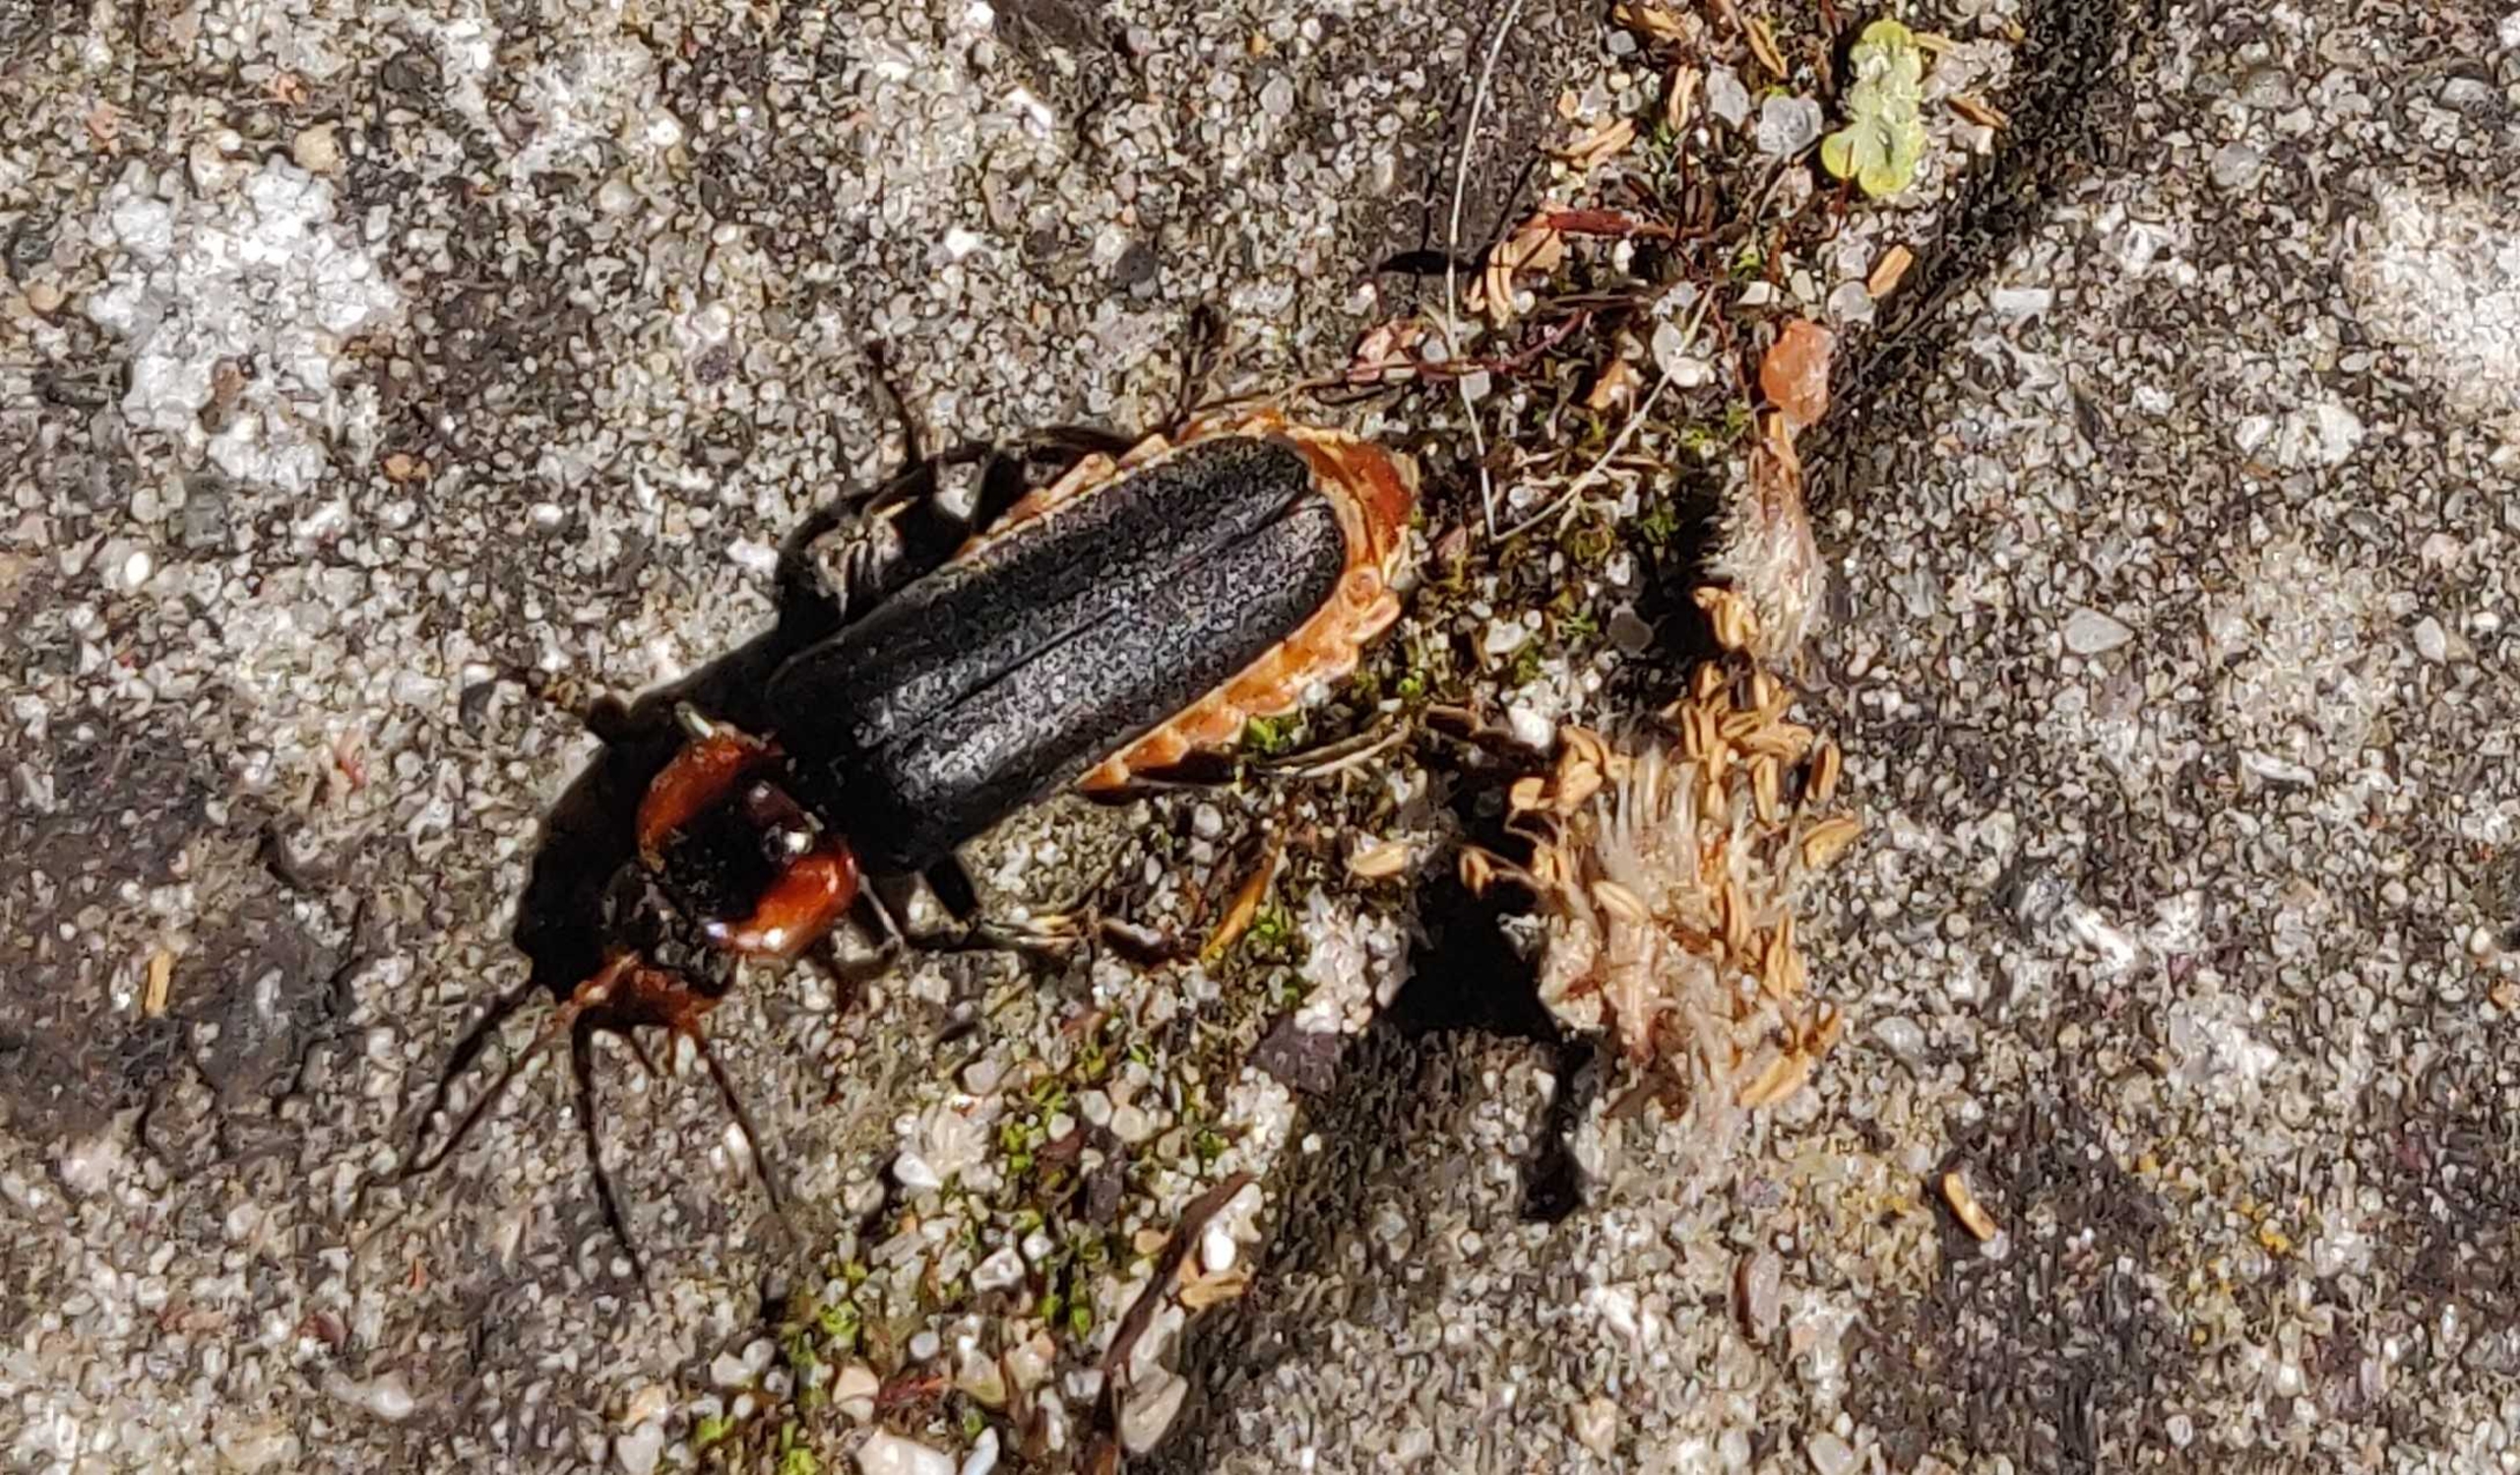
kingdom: Animalia
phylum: Arthropoda
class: Insecta
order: Coleoptera
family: Cantharidae
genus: Cantharis
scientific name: Cantharis fusca
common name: Stor blødvinge
